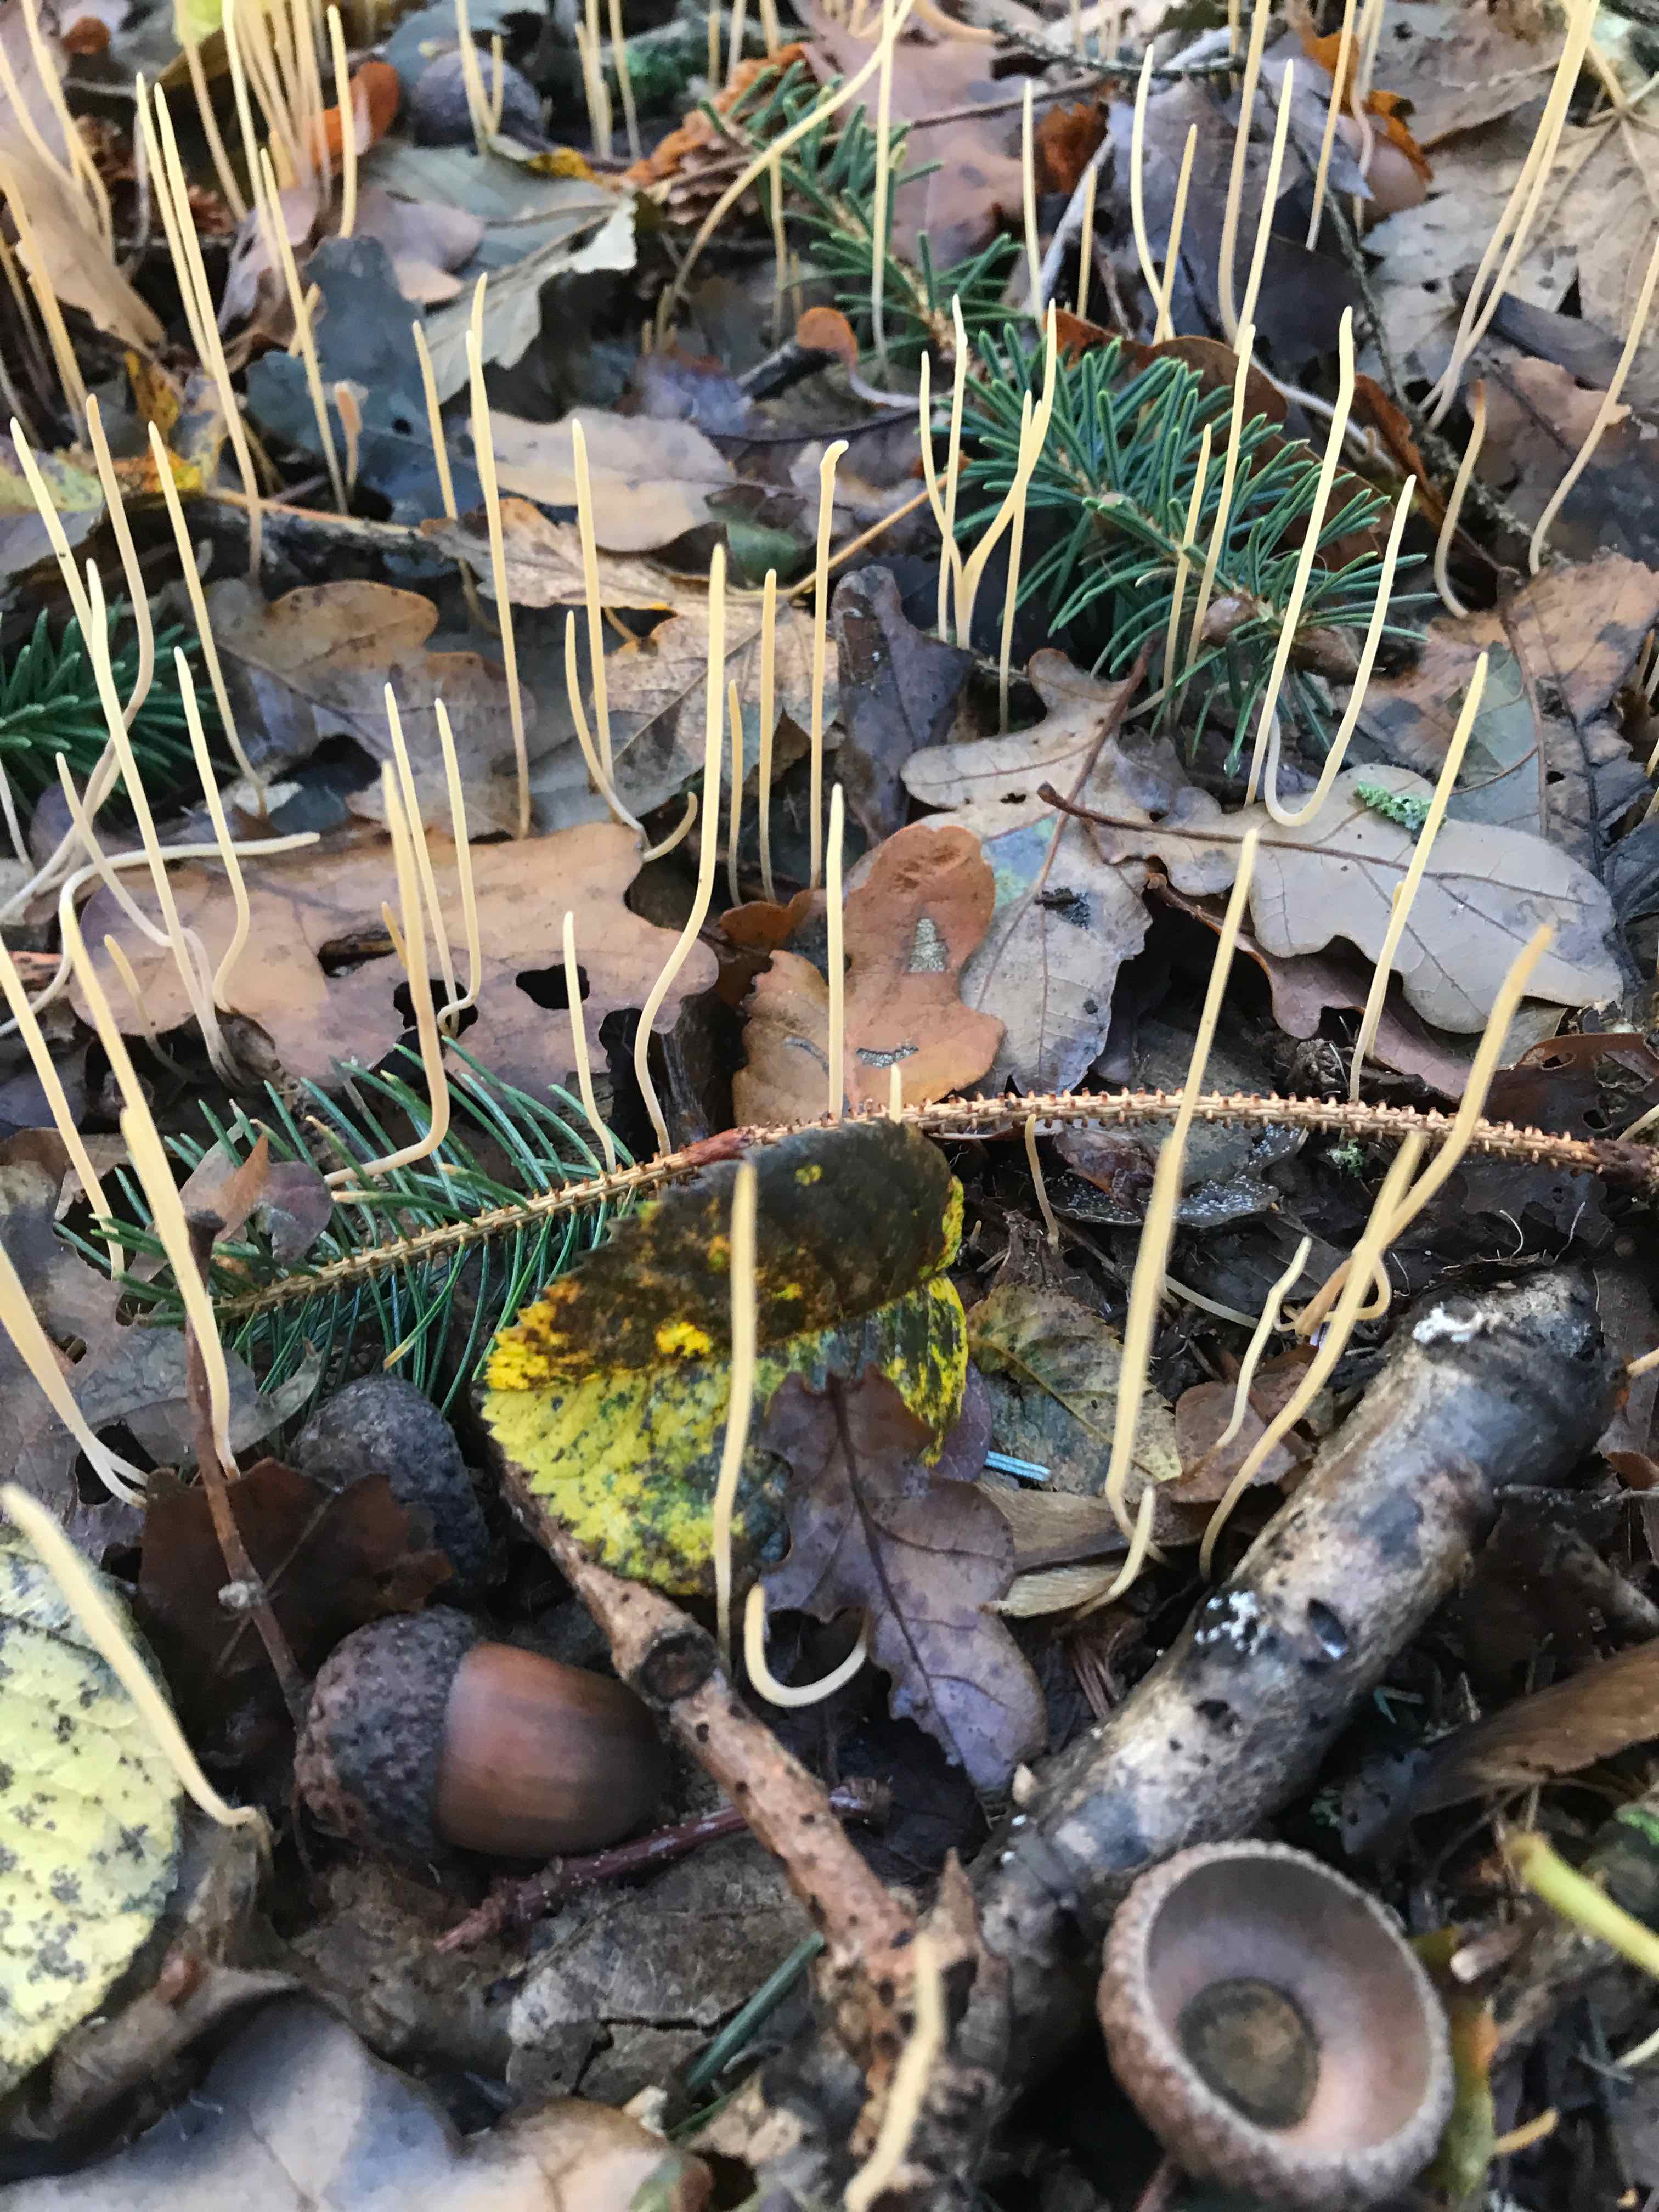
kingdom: Fungi
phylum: Basidiomycota
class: Agaricomycetes
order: Agaricales
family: Typhulaceae
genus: Typhula
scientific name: Typhula fistulosa
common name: pibet rørkølle
